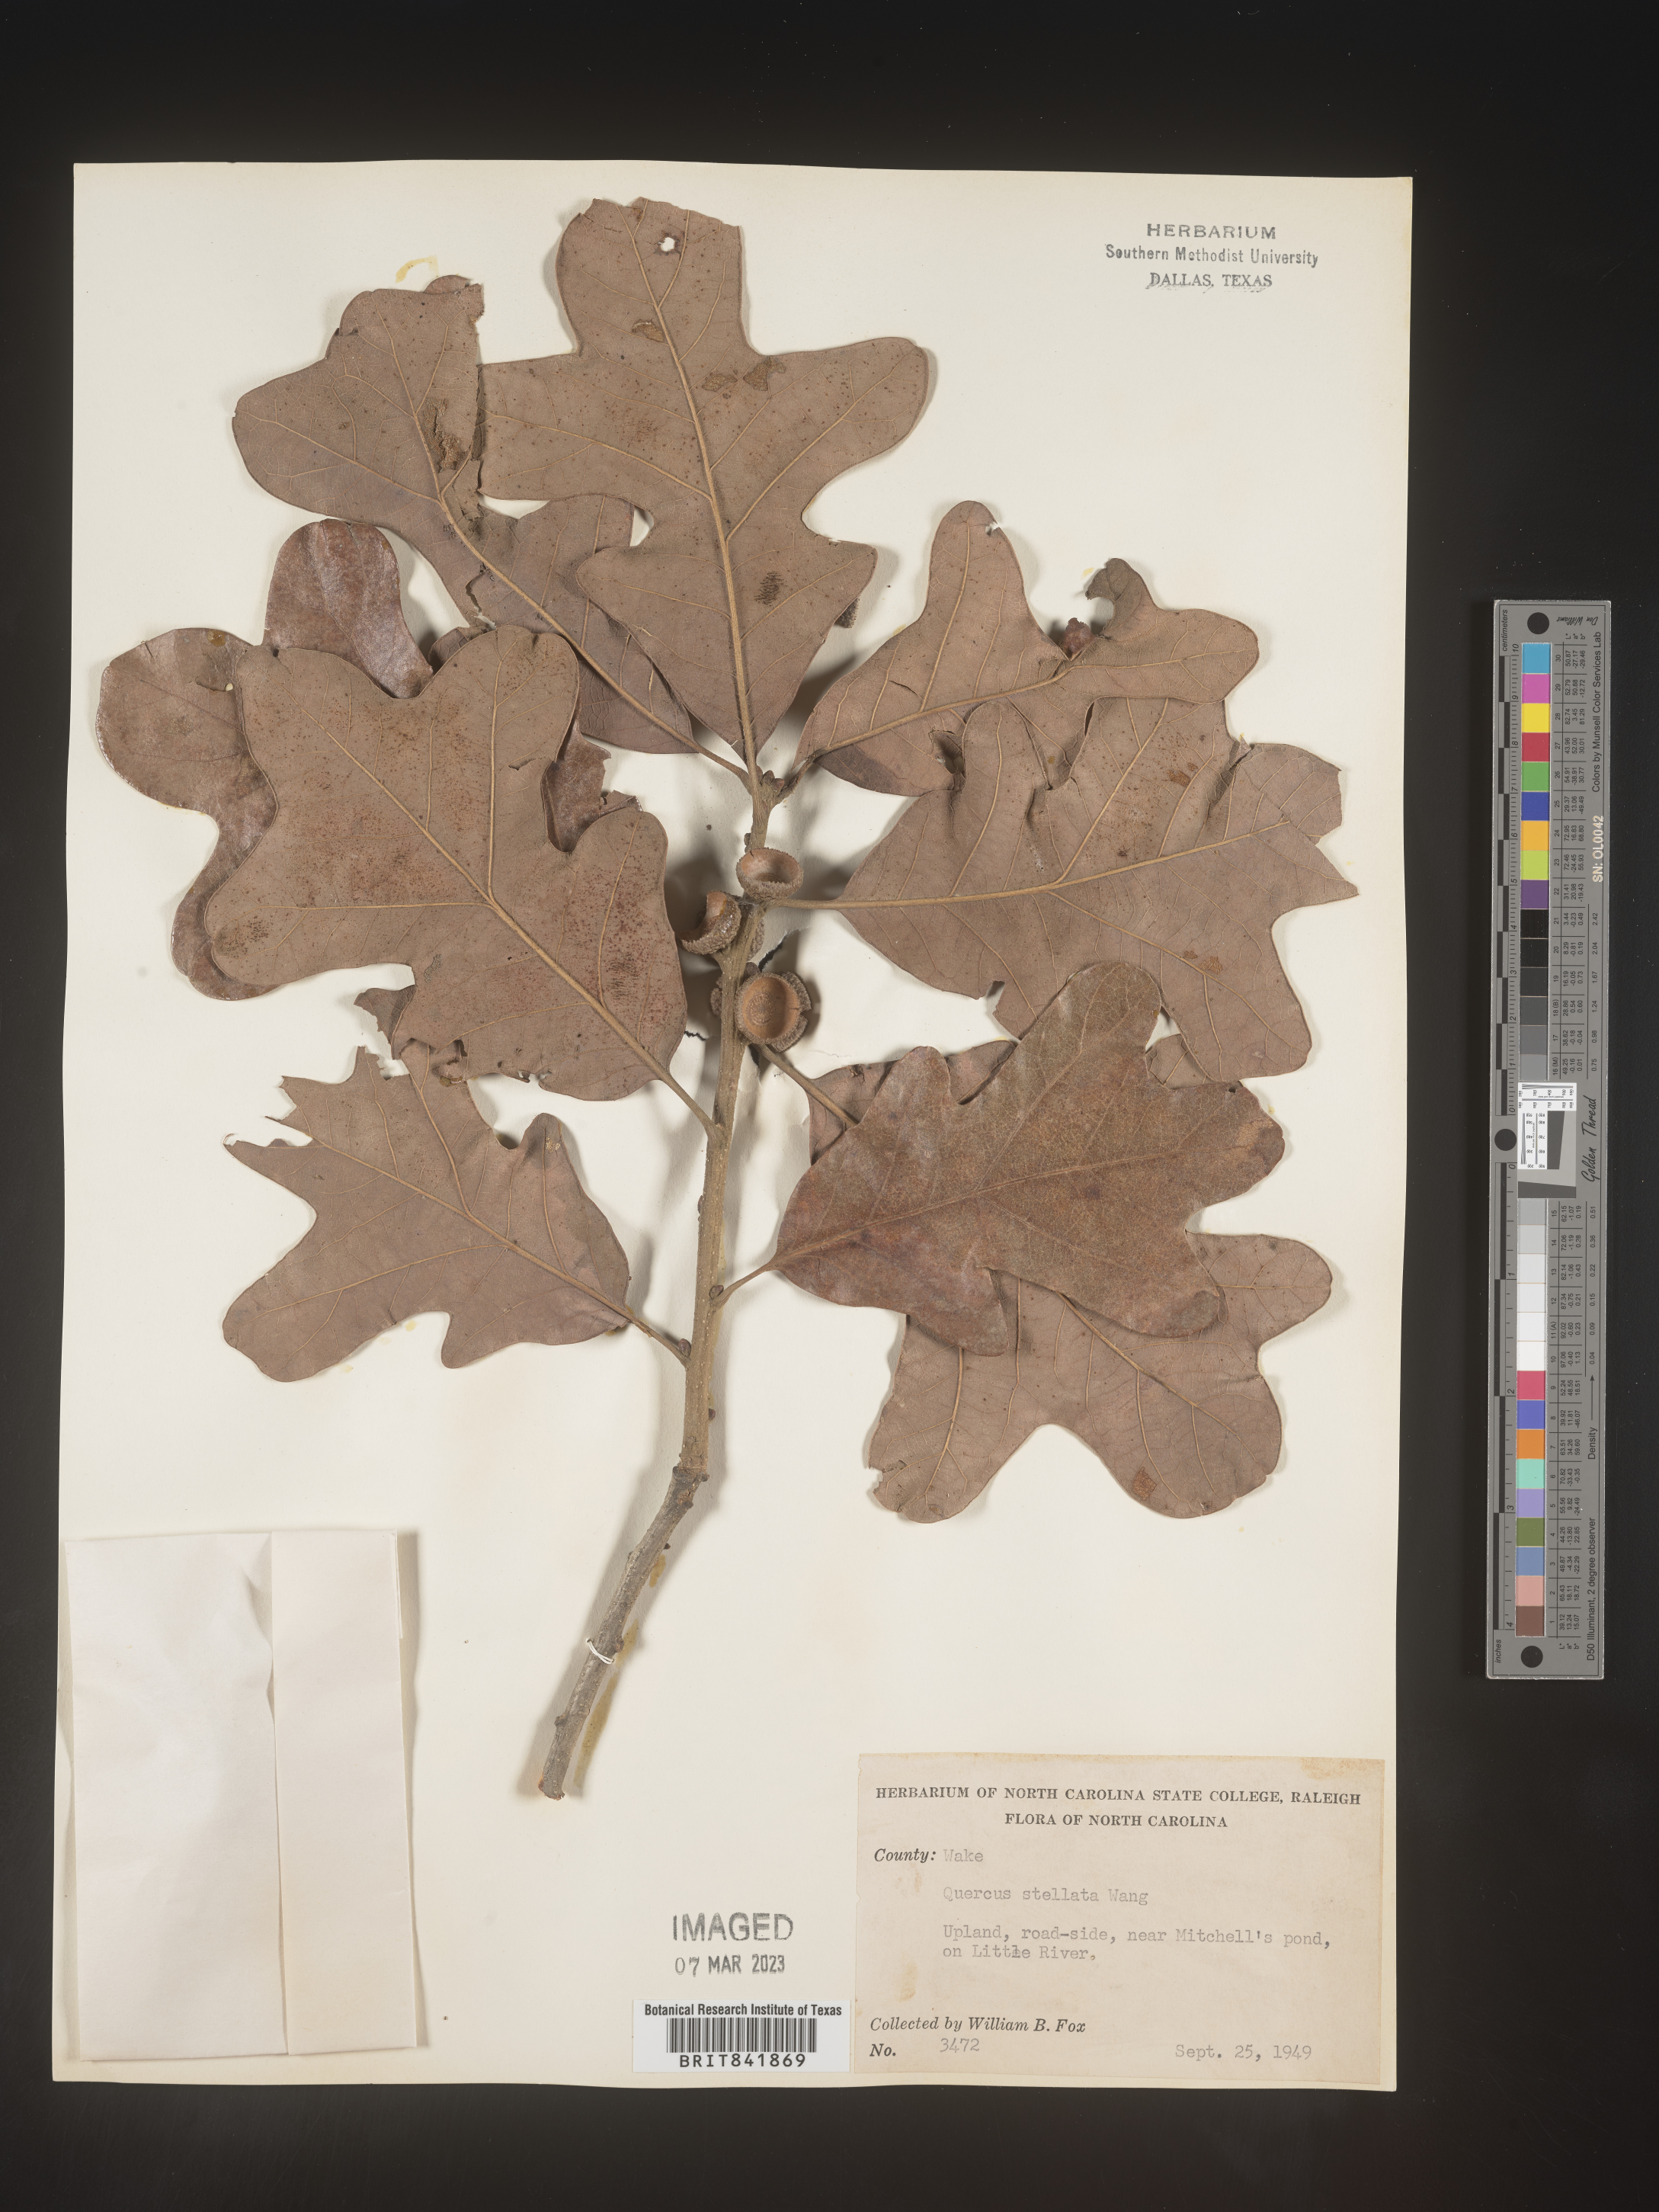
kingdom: Plantae
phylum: Tracheophyta
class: Magnoliopsida
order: Fagales
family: Fagaceae
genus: Quercus
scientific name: Quercus stellata
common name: Post oak
